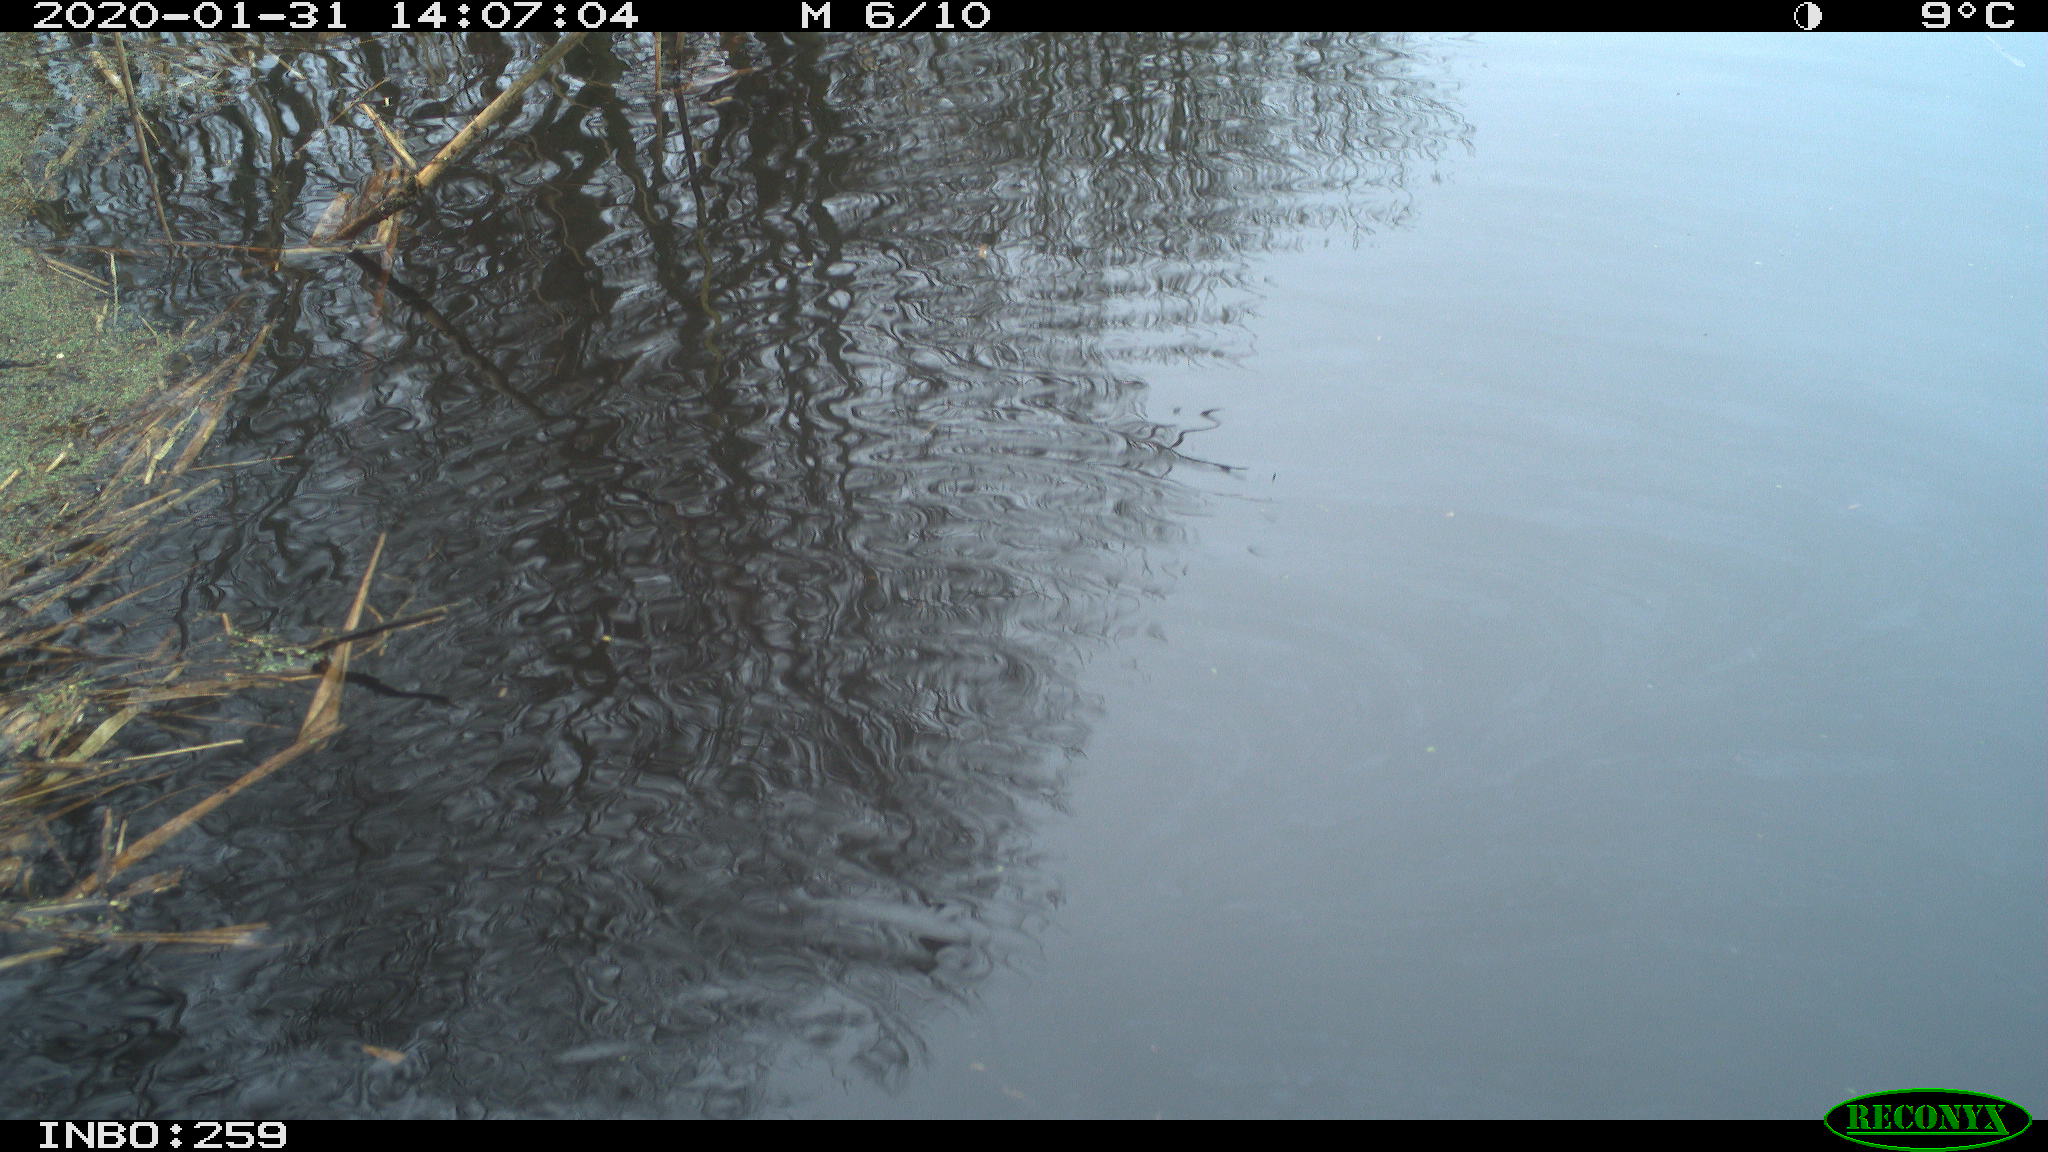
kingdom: Animalia
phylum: Chordata
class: Aves
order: Gruiformes
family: Rallidae
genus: Gallinula
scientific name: Gallinula chloropus
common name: Common moorhen
